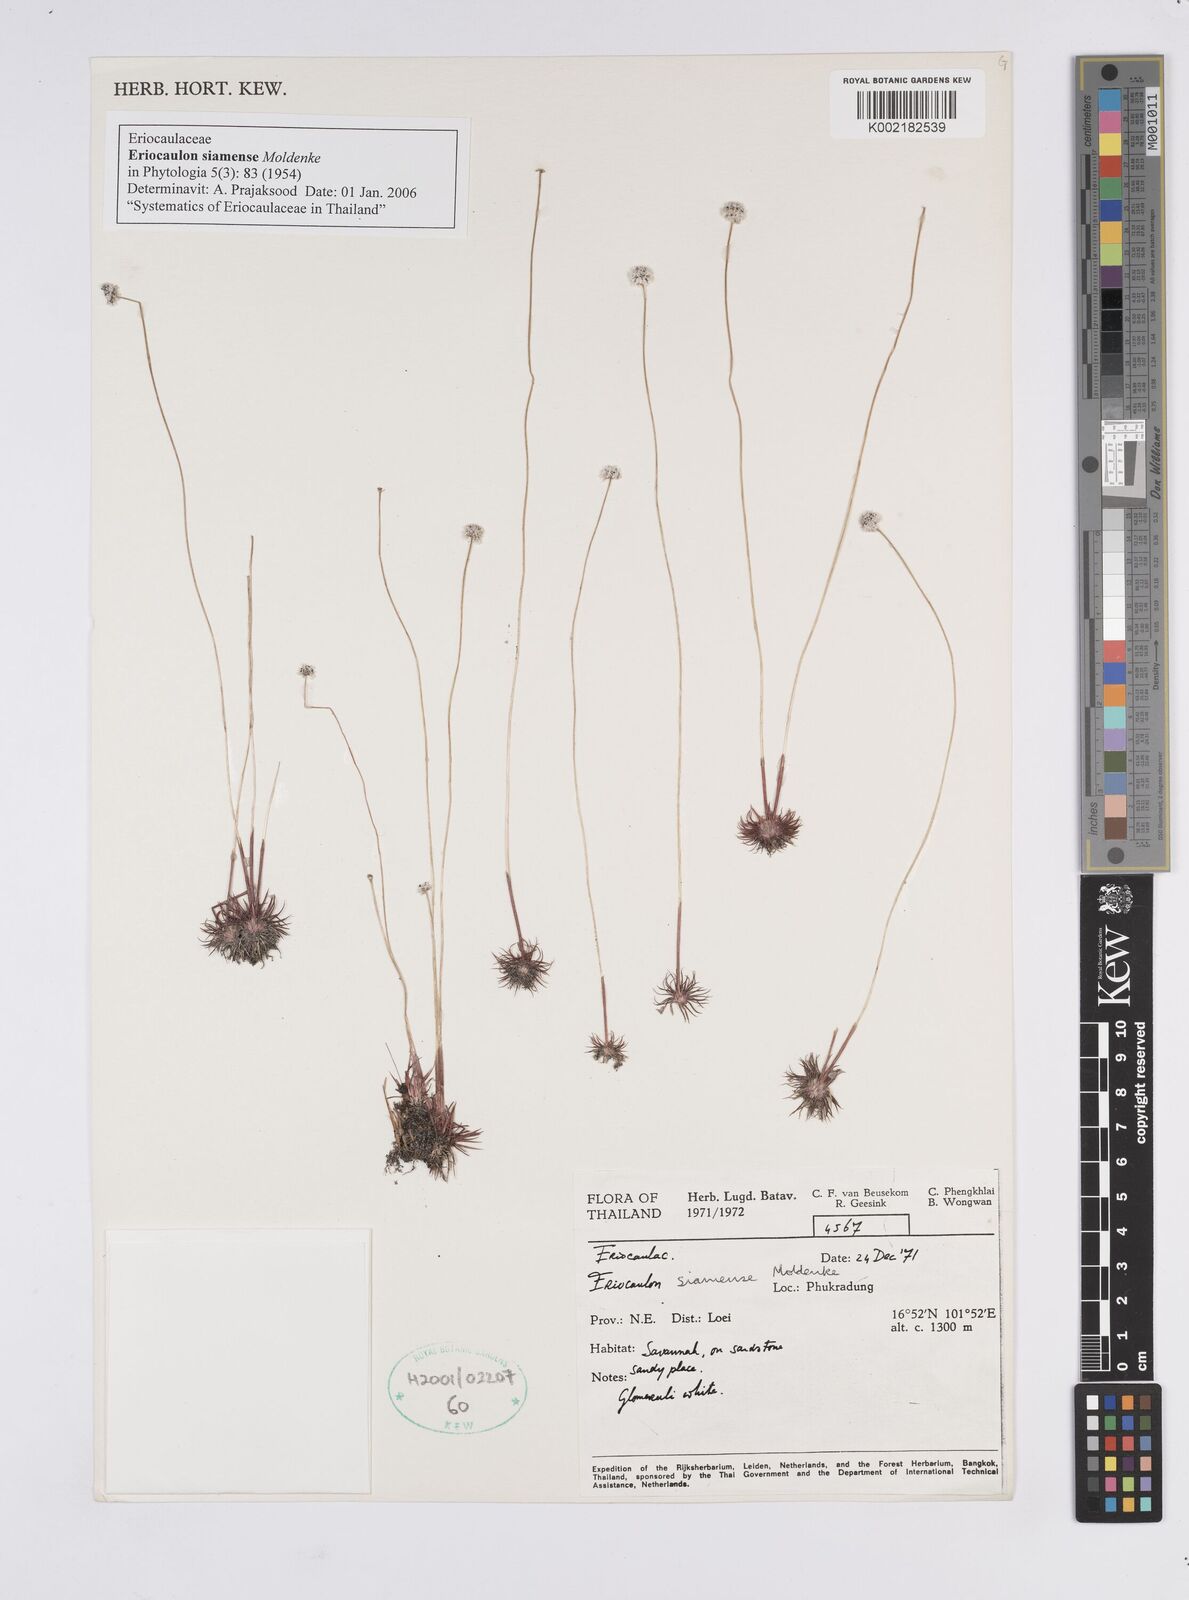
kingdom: Plantae
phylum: Tracheophyta
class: Liliopsida
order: Poales
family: Eriocaulaceae
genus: Eriocaulon
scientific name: Eriocaulon siamense
